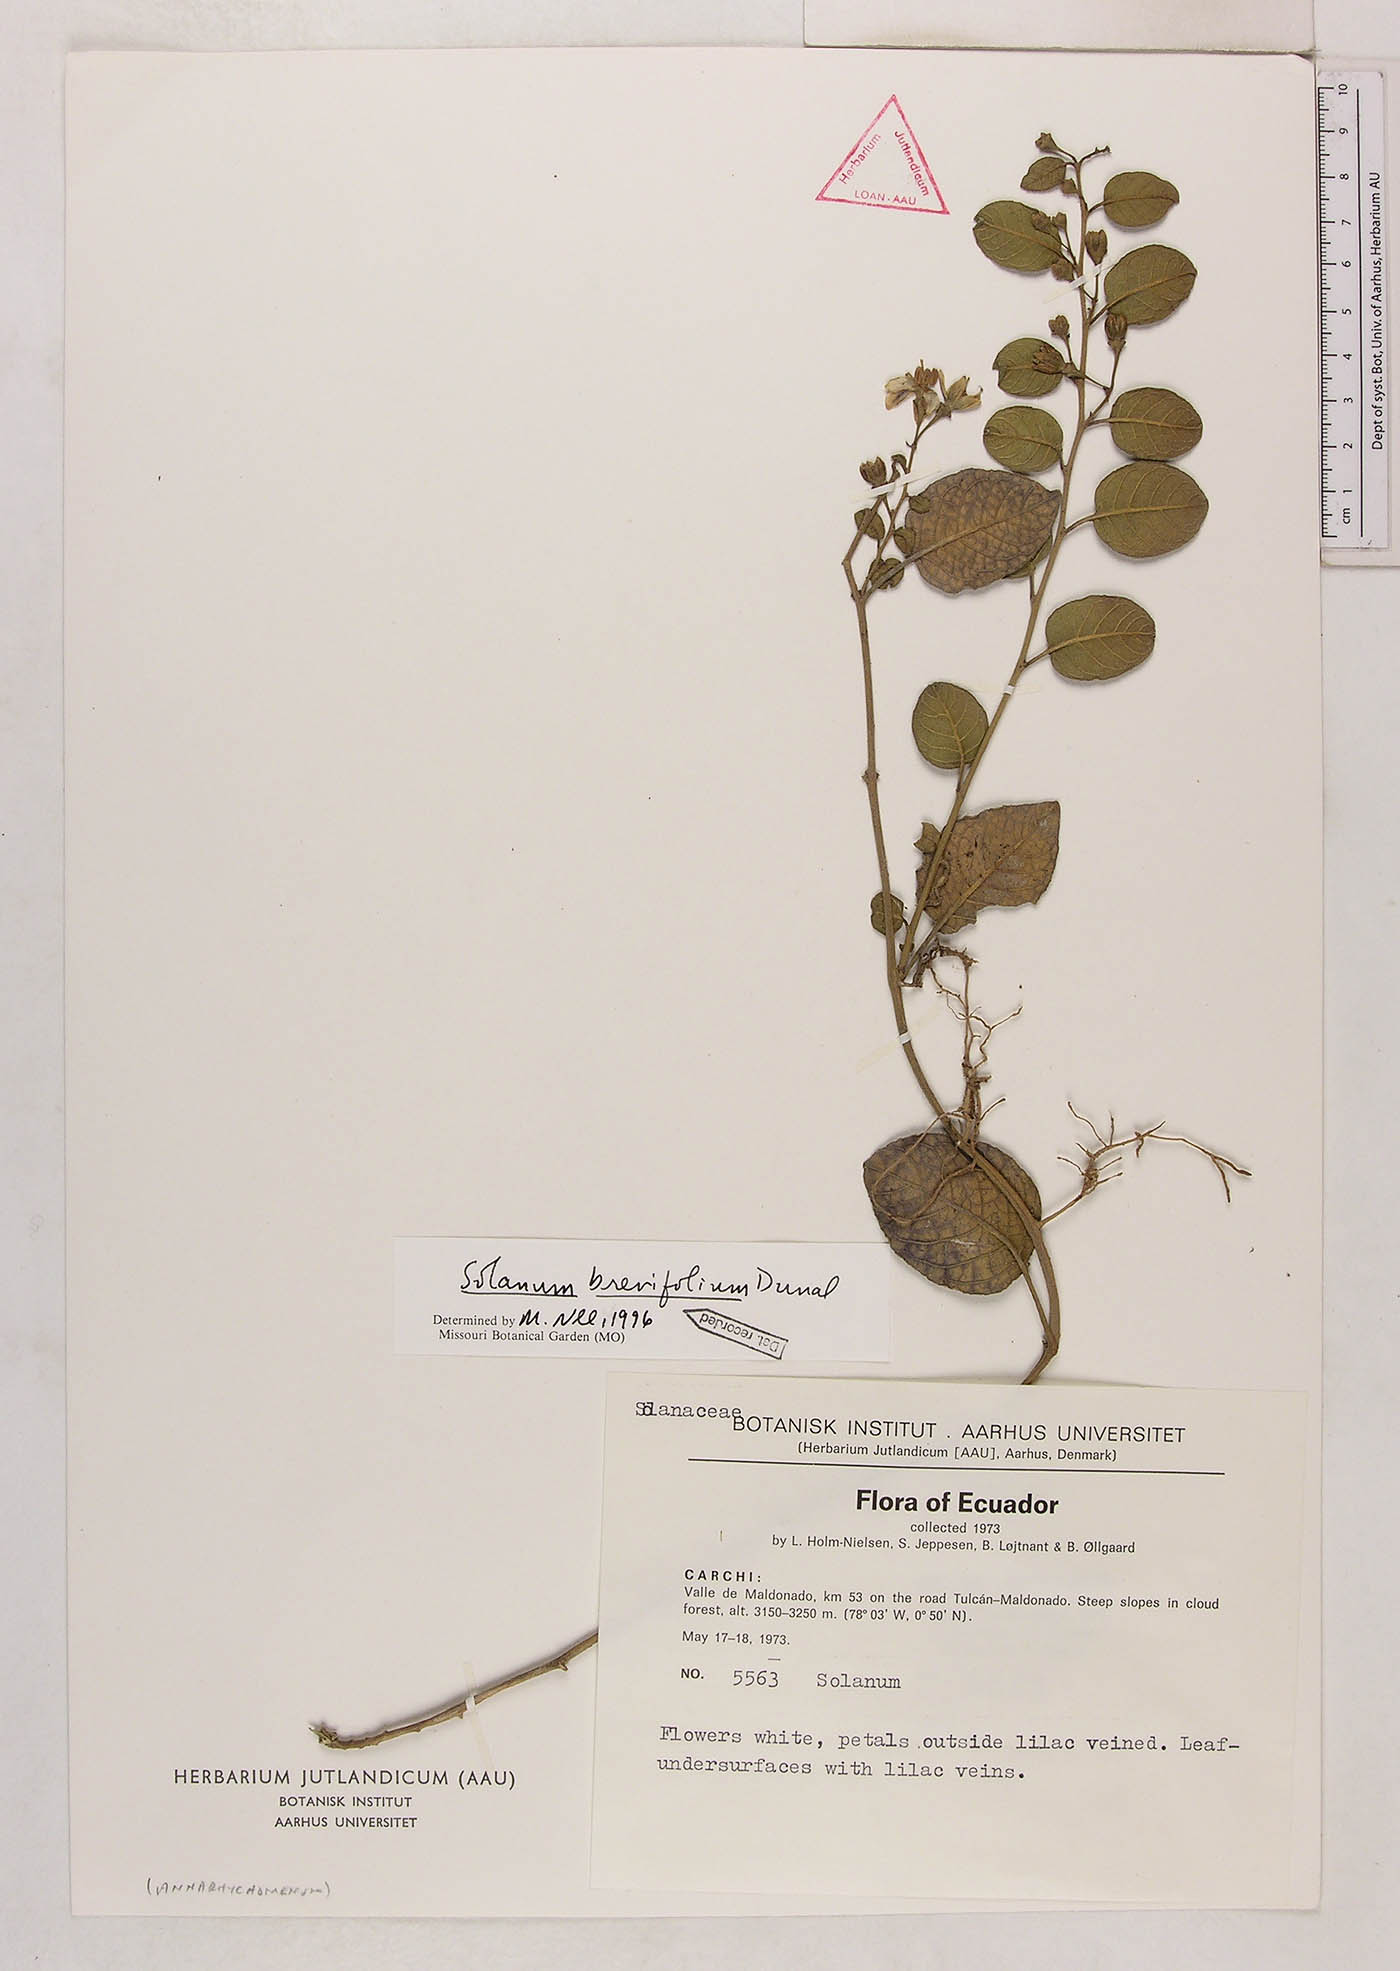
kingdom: Plantae
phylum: Tracheophyta
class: Magnoliopsida
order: Solanales
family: Solanaceae
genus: Solanum
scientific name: Solanum brevifolium
